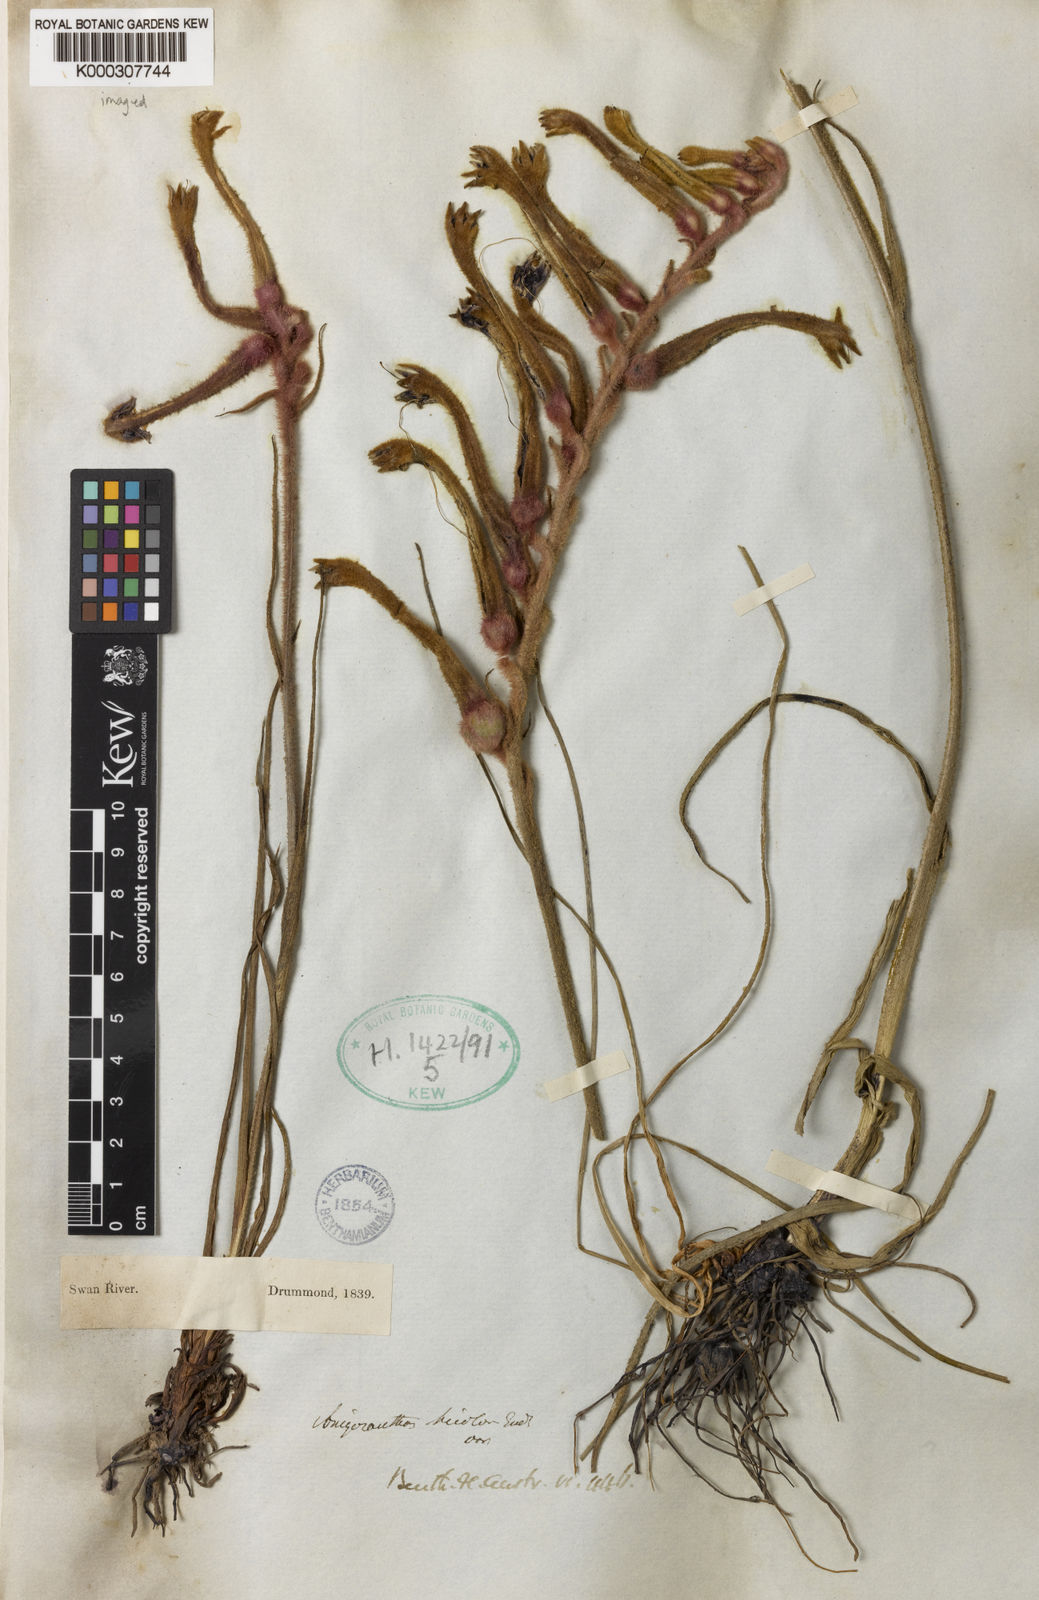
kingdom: Plantae
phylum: Tracheophyta
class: Liliopsida
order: Commelinales
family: Haemodoraceae
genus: Anigozanthos
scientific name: Anigozanthos bicolor
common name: Little kangaroo-paw
